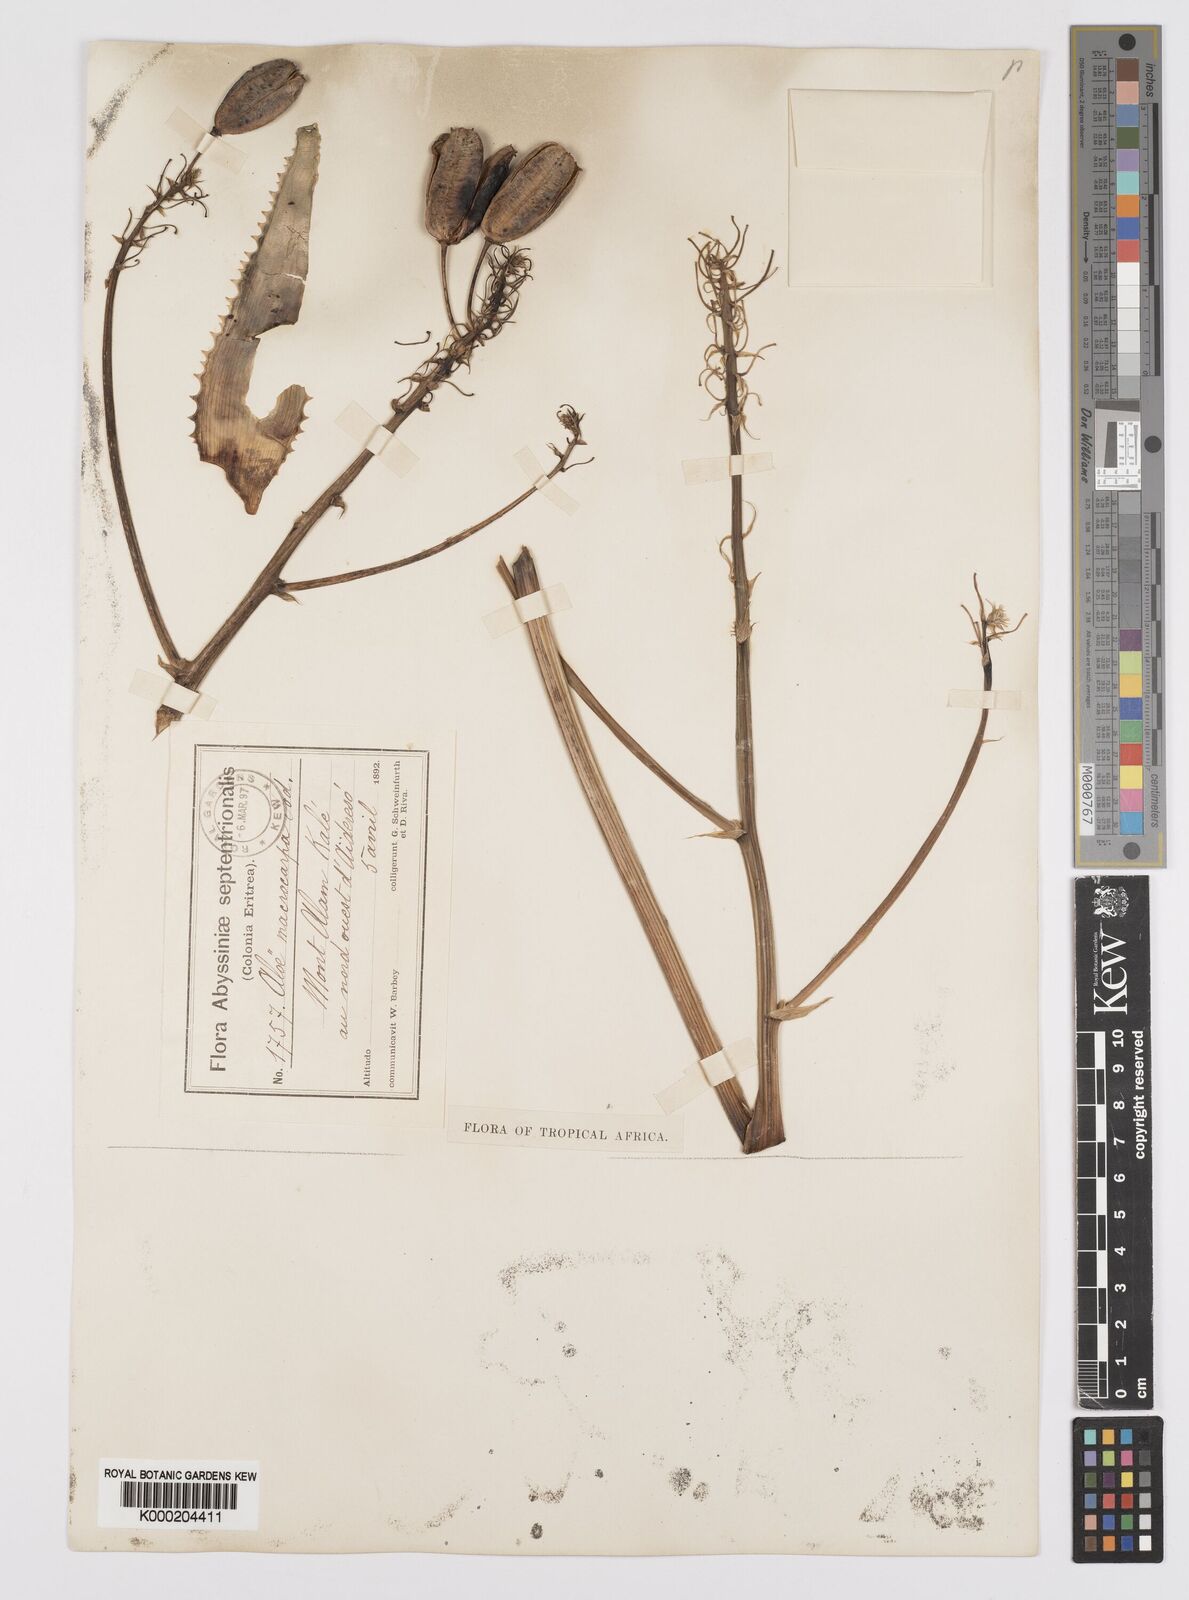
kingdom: Plantae
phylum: Tracheophyta
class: Liliopsida
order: Asparagales
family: Asphodelaceae
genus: Aloe
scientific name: Aloe macrocarpa
